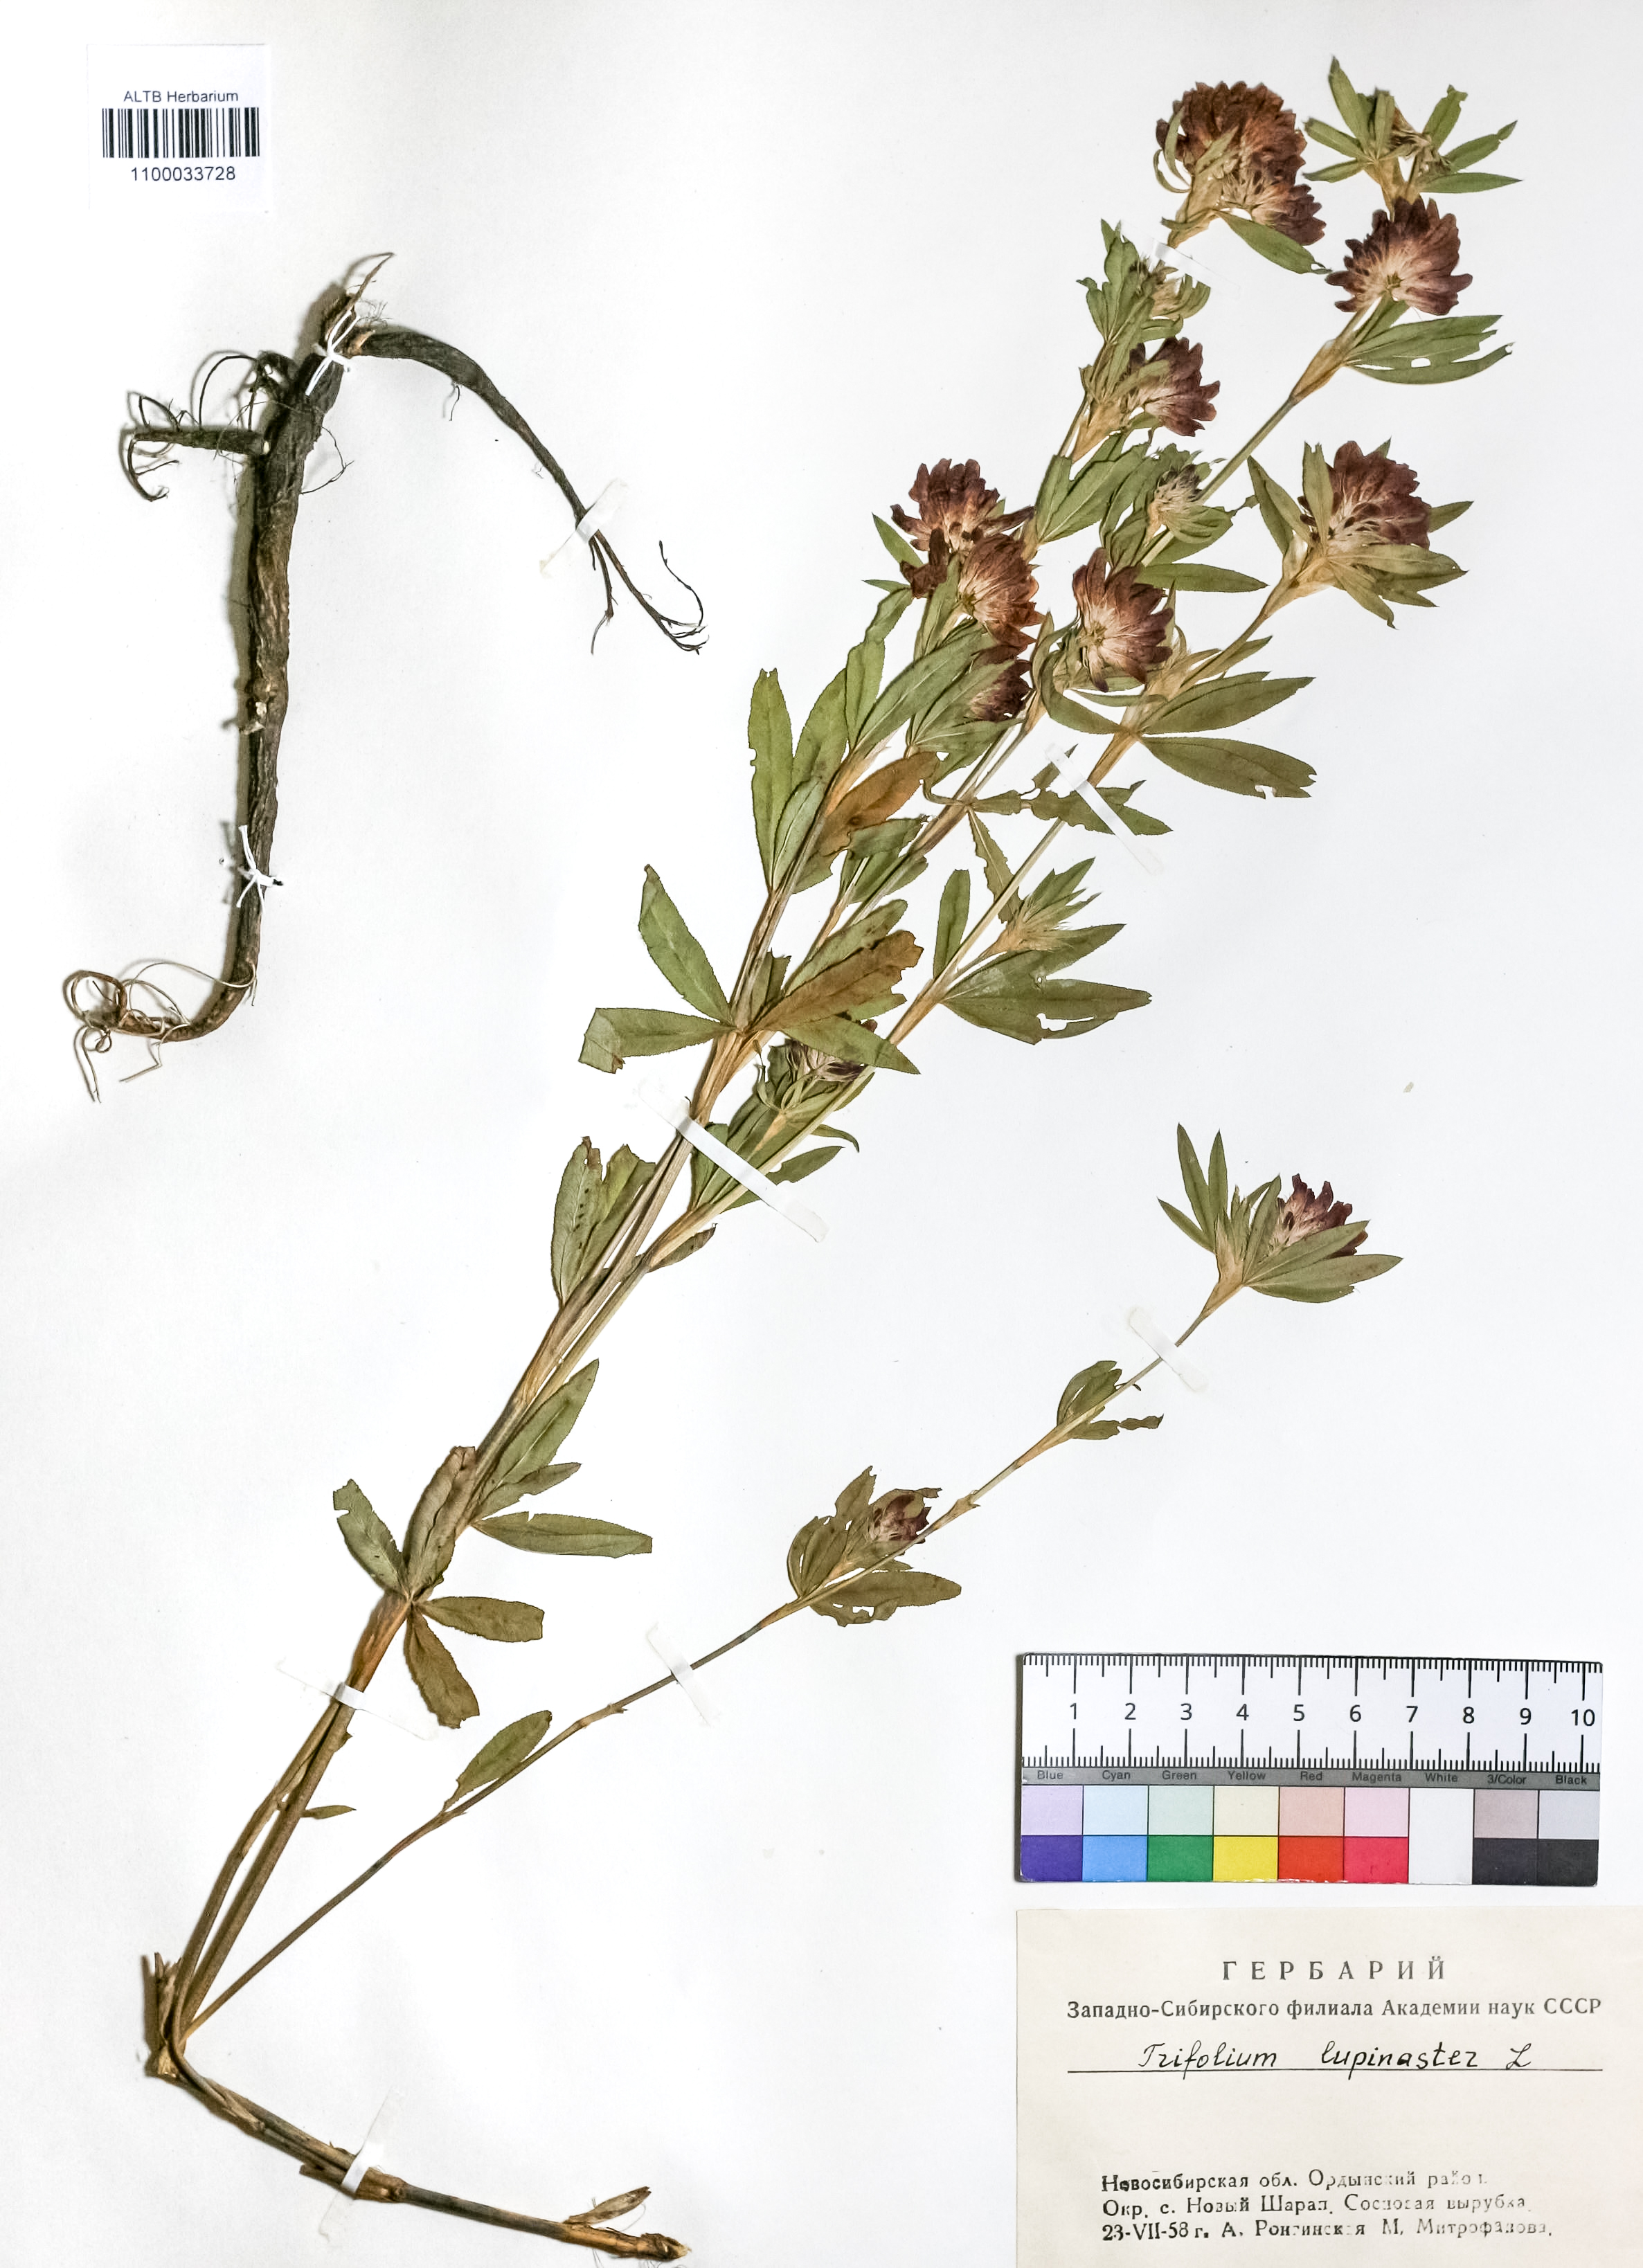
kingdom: Plantae
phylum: Tracheophyta
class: Magnoliopsida
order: Fabales
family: Fabaceae
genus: Trifolium
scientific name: Trifolium lupinaster
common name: Lupine clover
